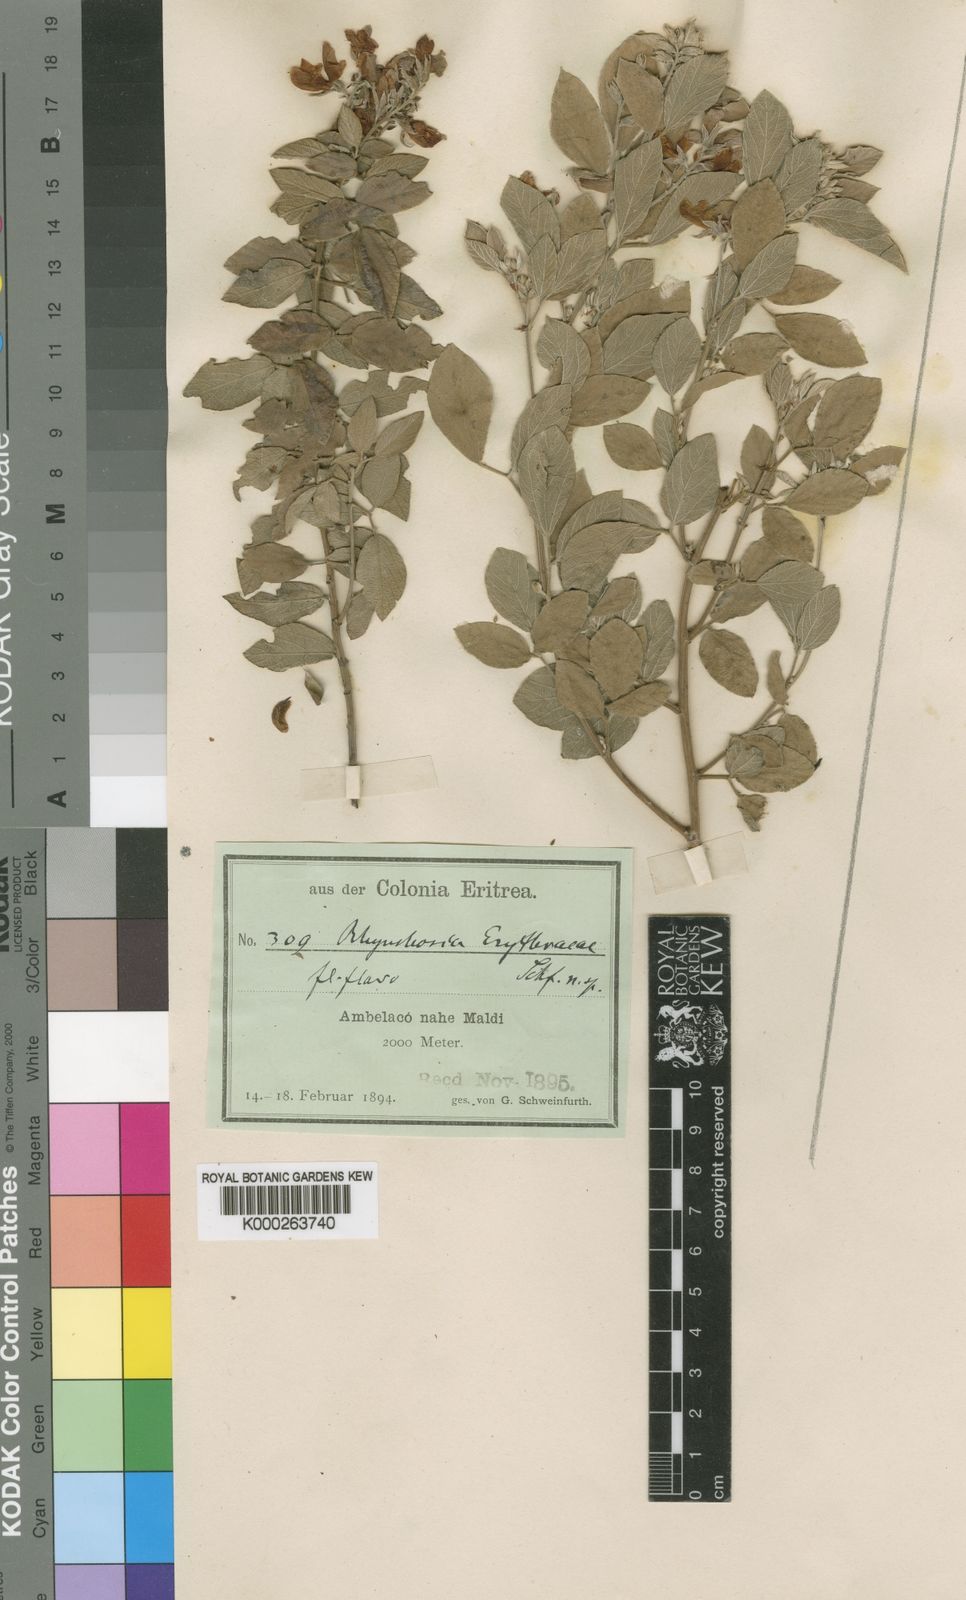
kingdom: Plantae
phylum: Tracheophyta
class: Magnoliopsida
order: Fabales
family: Fabaceae
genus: Rhynchosia
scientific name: Rhynchosia erythraeae
